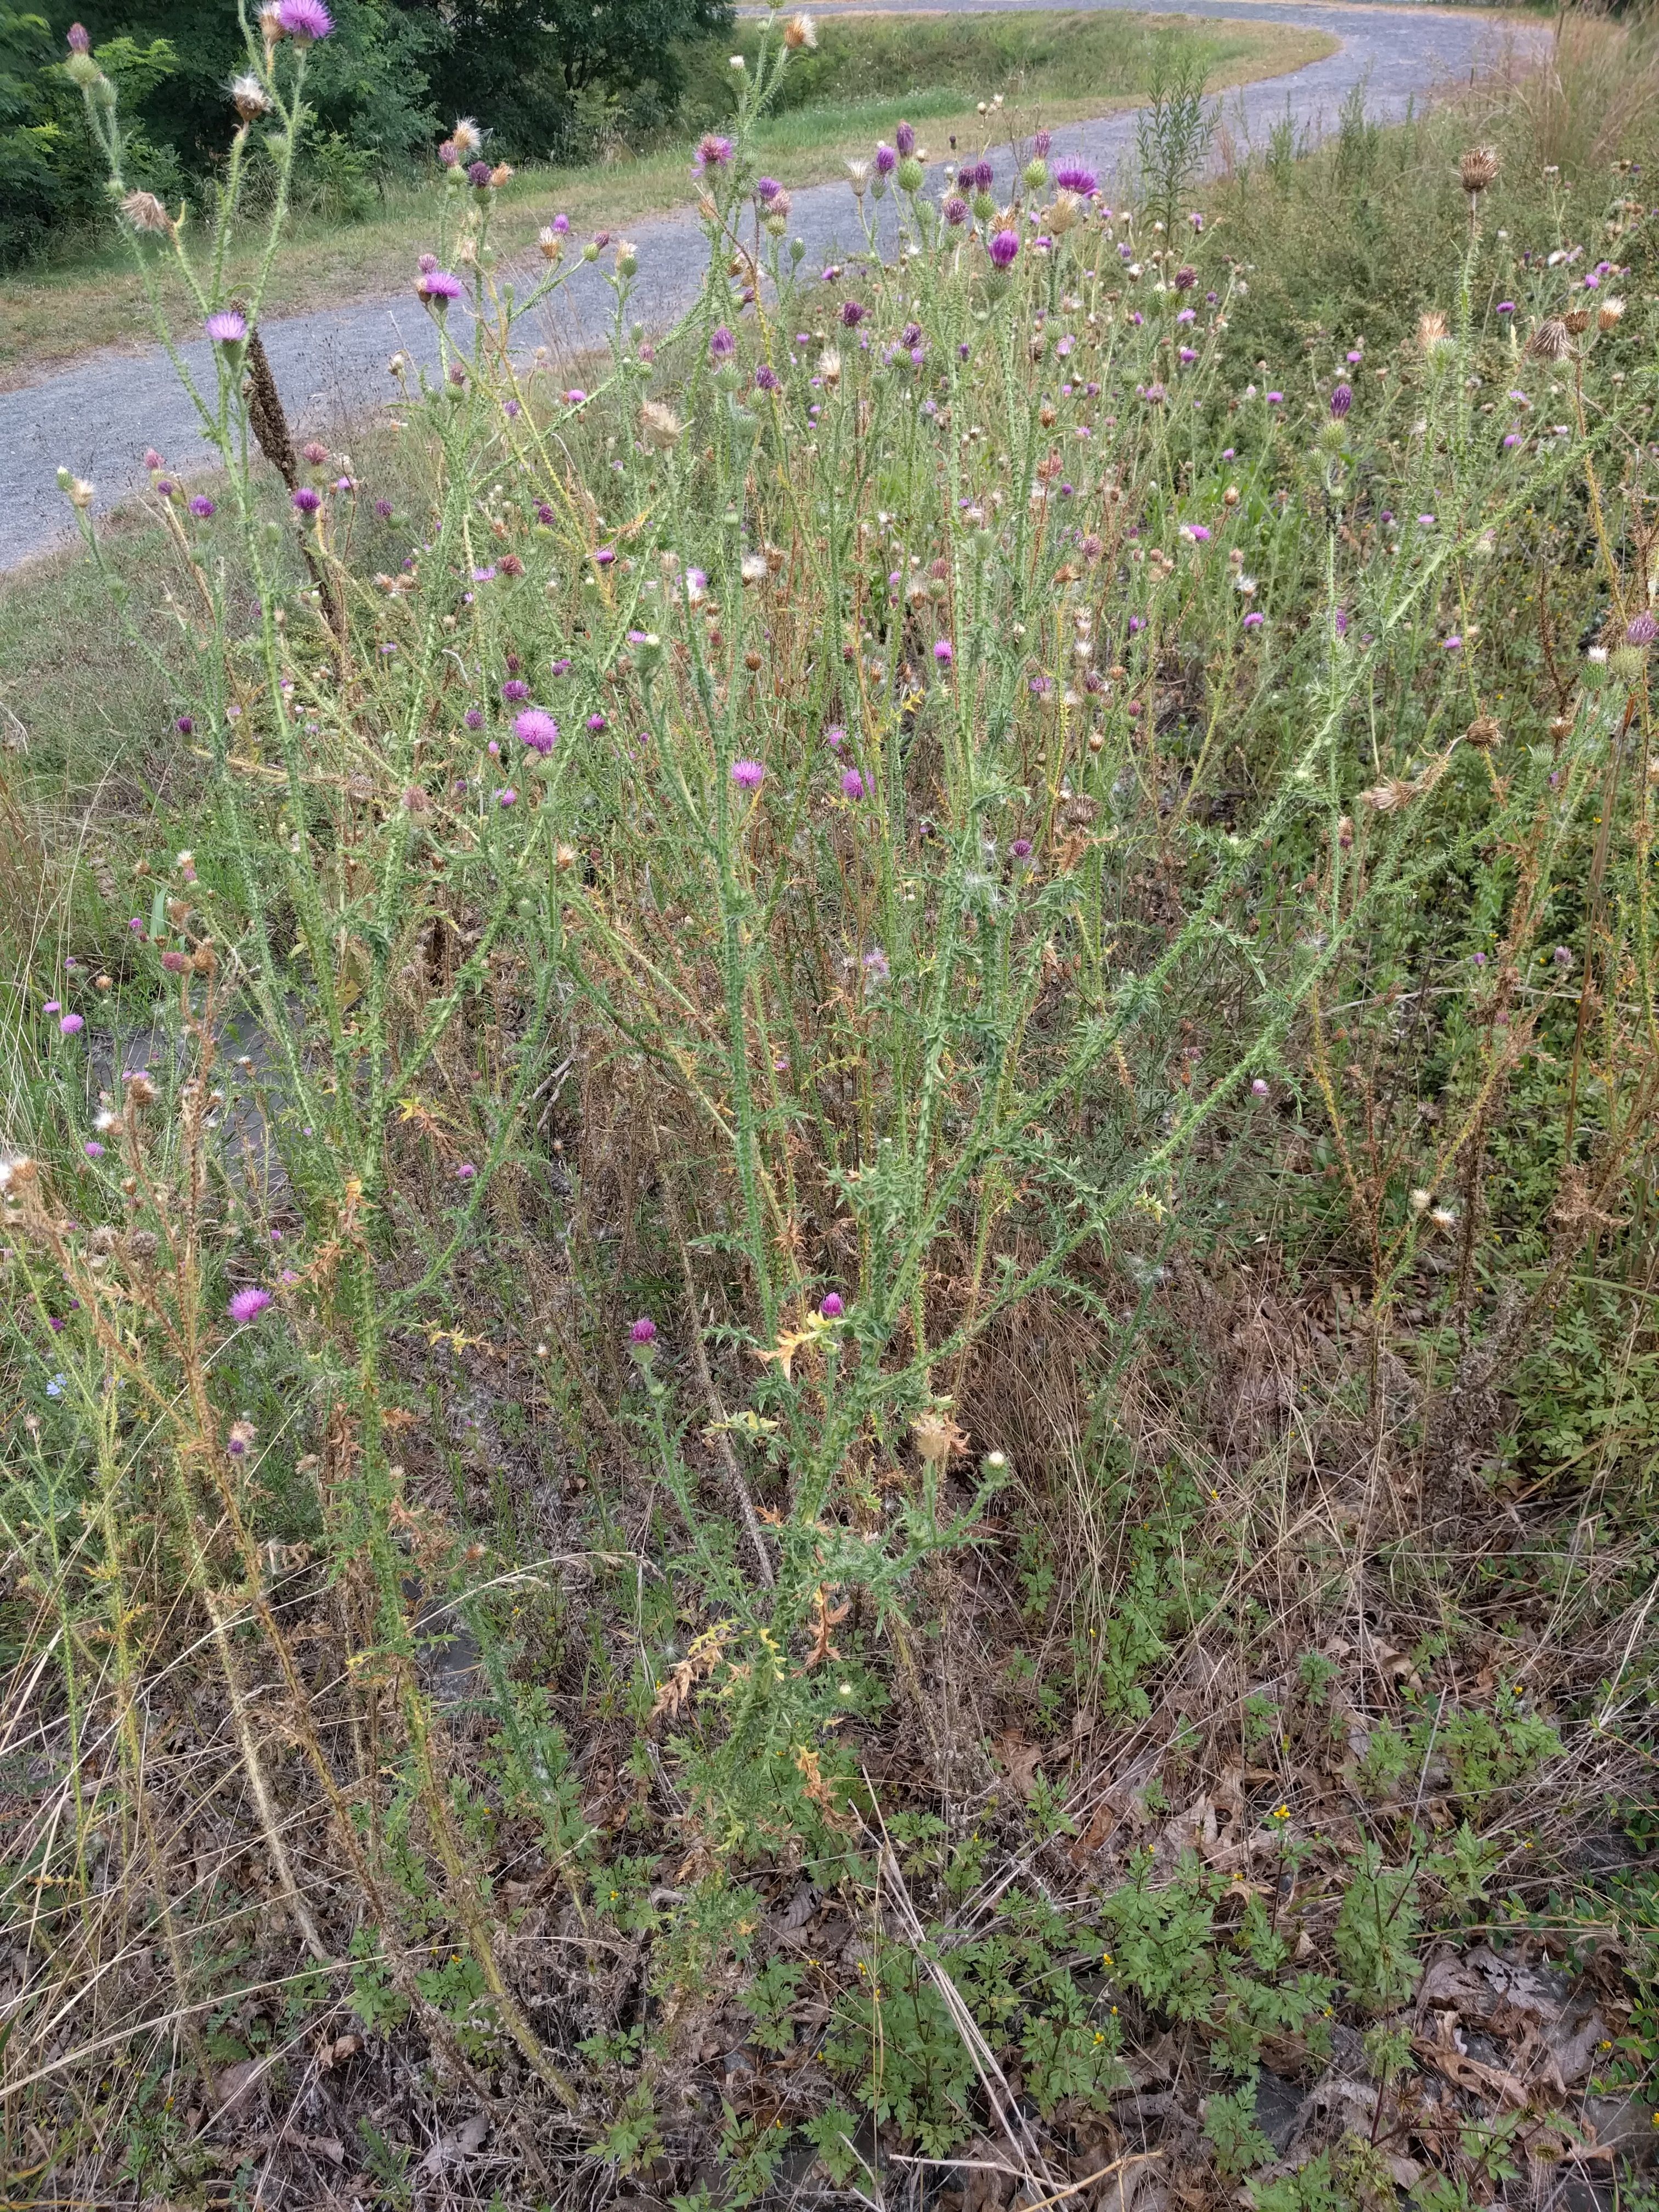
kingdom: Plantae
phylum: Tracheophyta
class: Magnoliopsida
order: Asterales
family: Asteraceae
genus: Cirsium
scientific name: Cirsium vulgare
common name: Bull thistle
